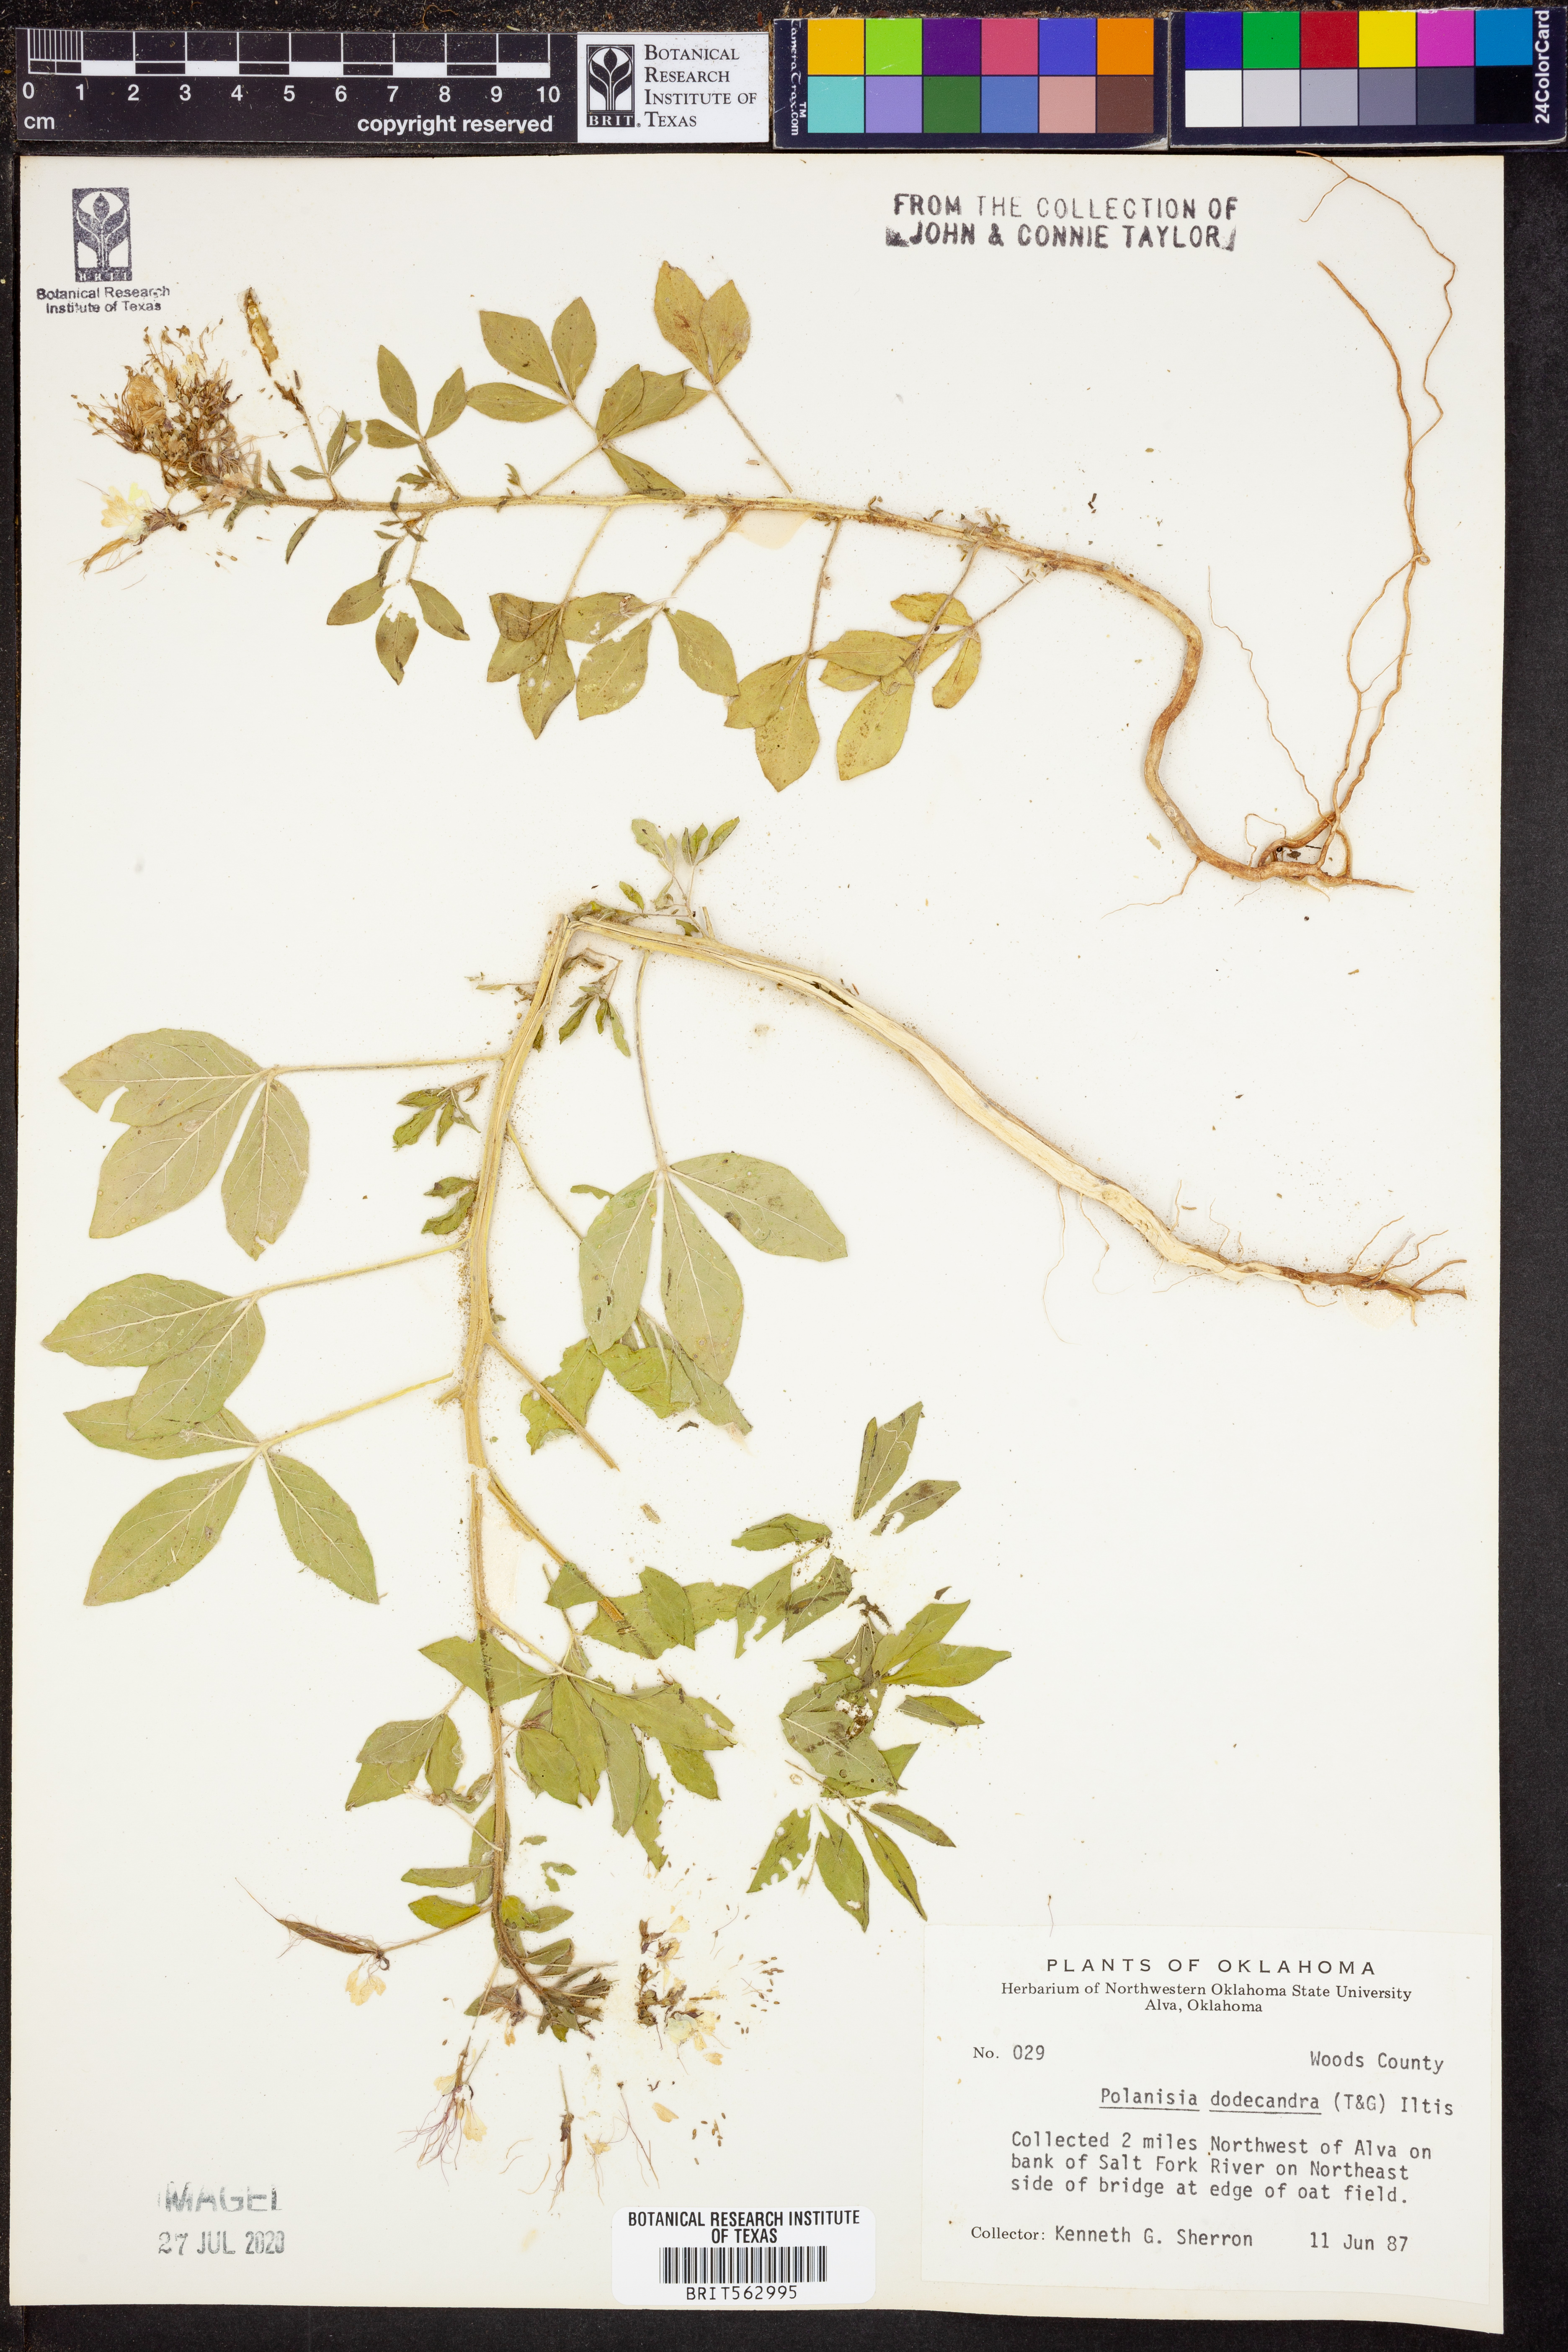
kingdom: Plantae
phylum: Tracheophyta
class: Magnoliopsida
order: Brassicales
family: Cleomaceae
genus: Polanisia
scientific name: Polanisia dodecandra
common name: Clammyweed
